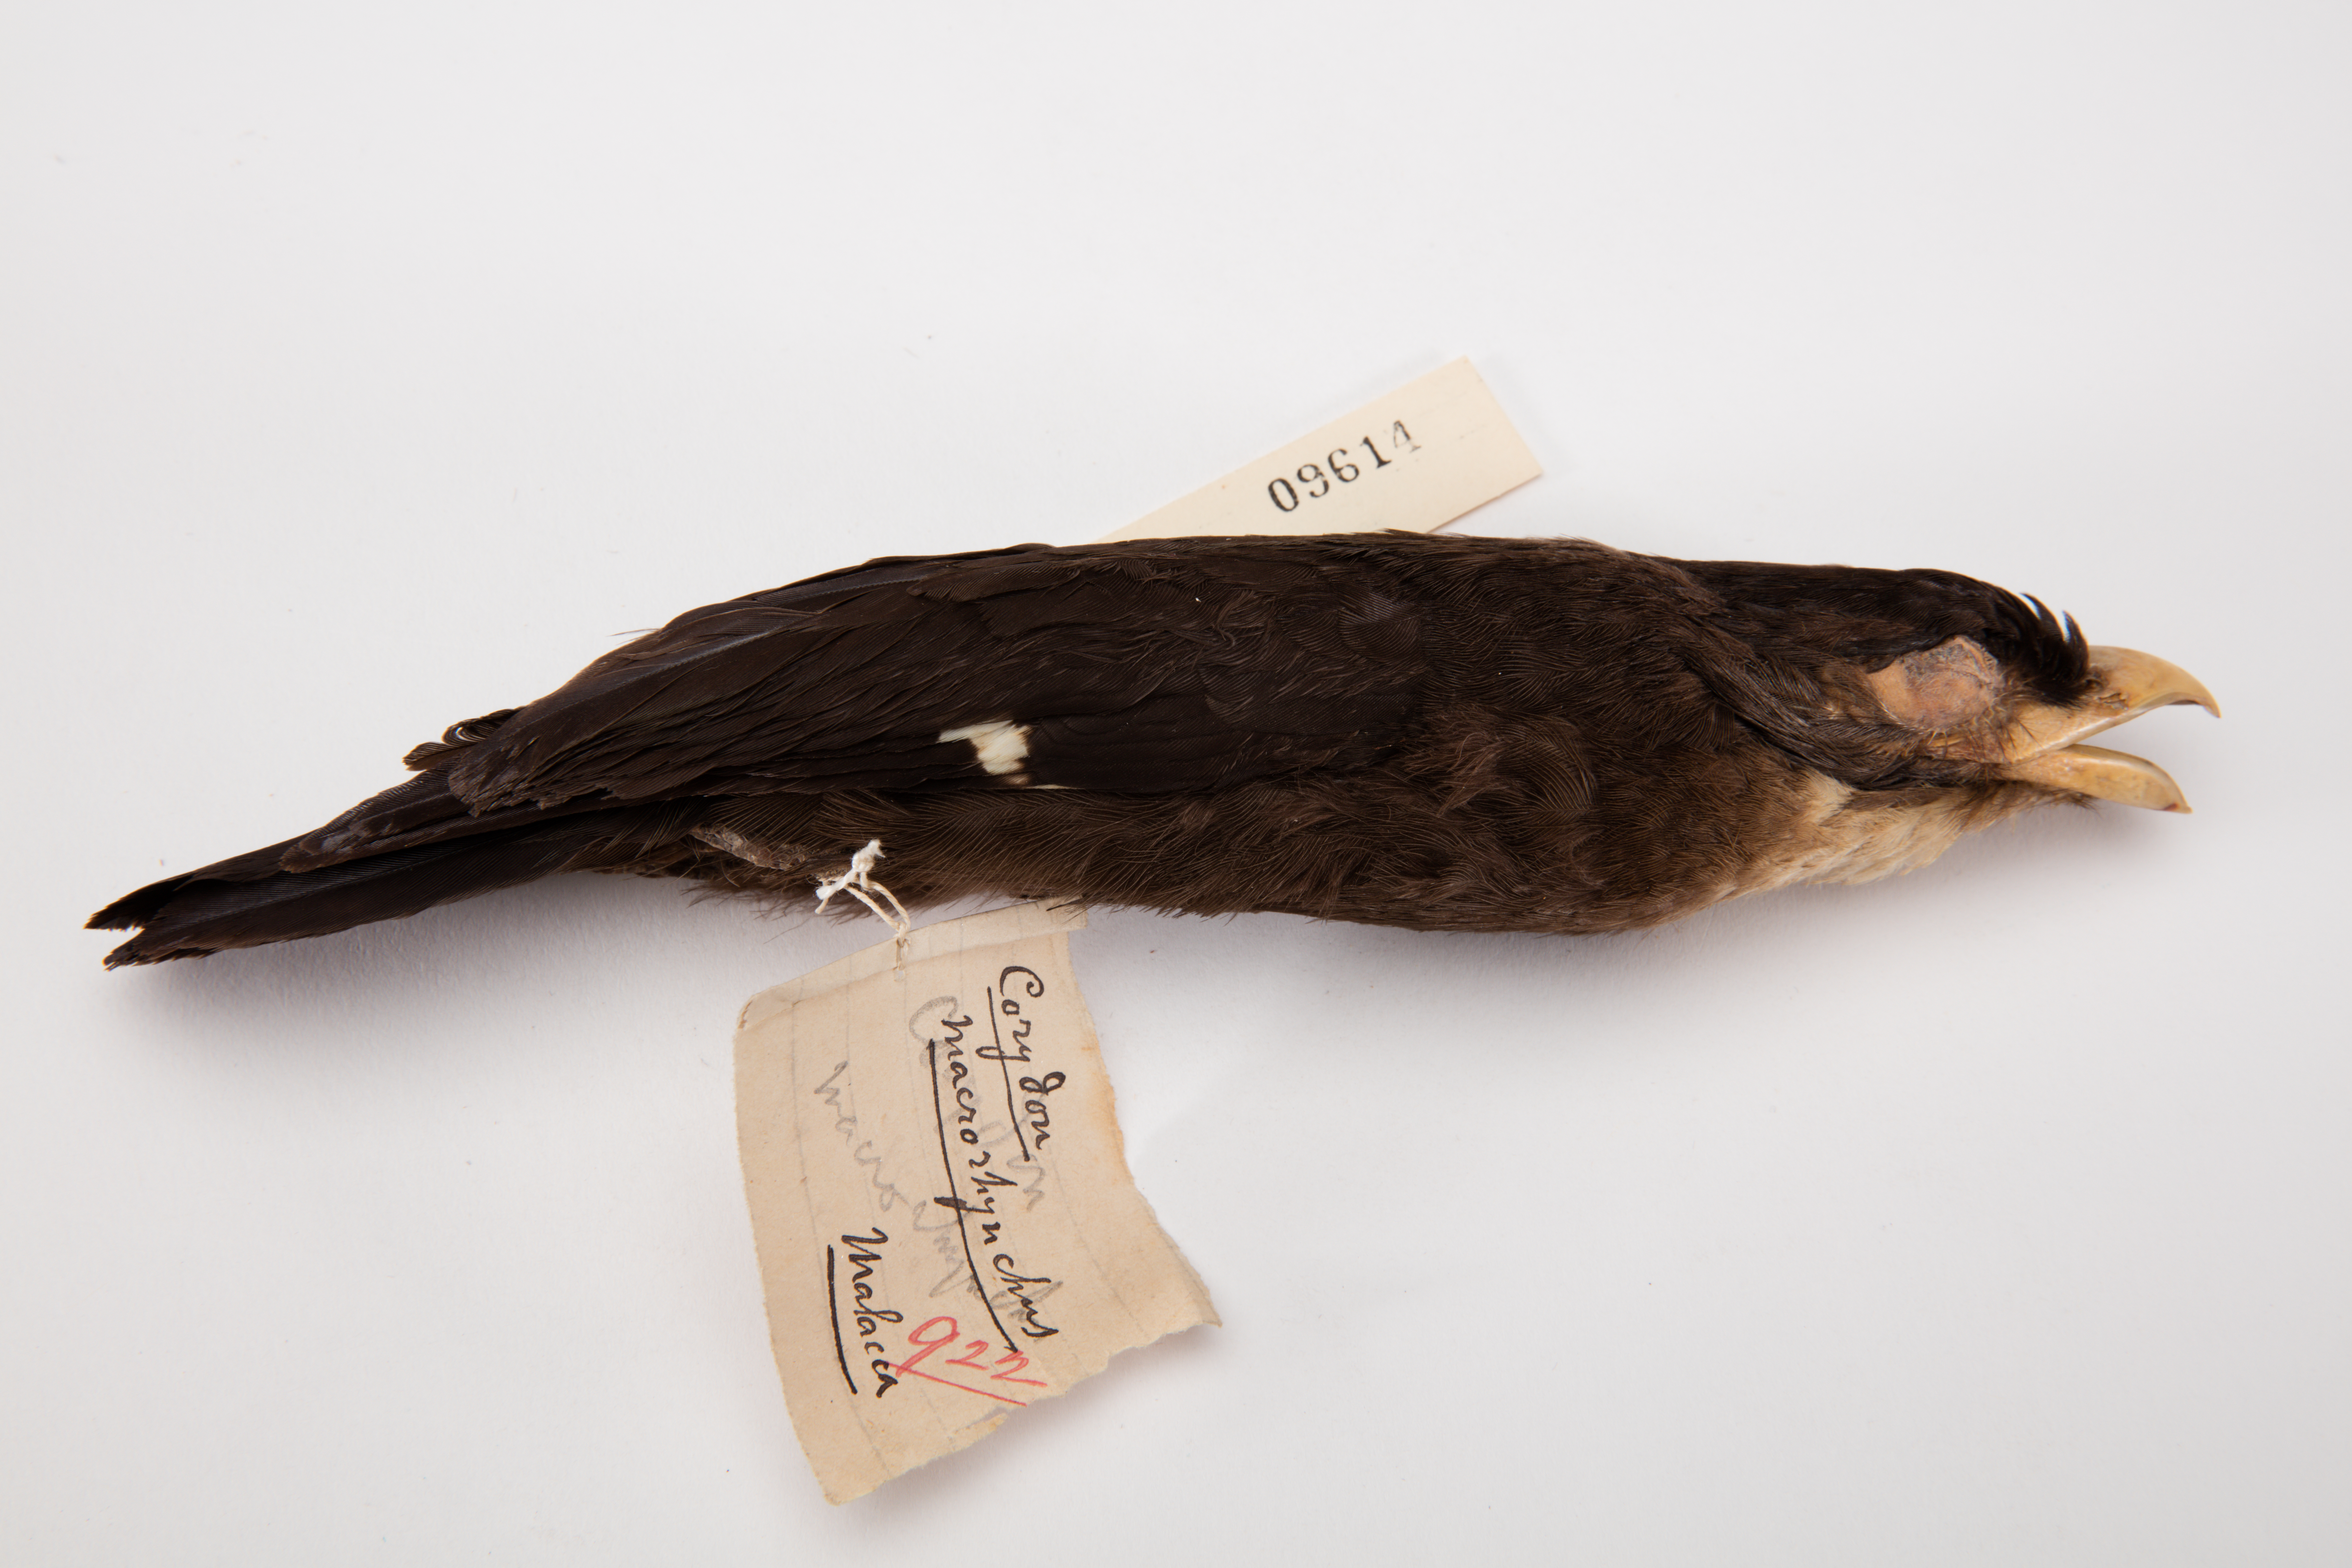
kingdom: Animalia
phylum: Chordata
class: Aves
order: Passeriformes
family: Eurylaimidae
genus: Corydon
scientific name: Corydon sumatranus
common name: Dusky broadbill
